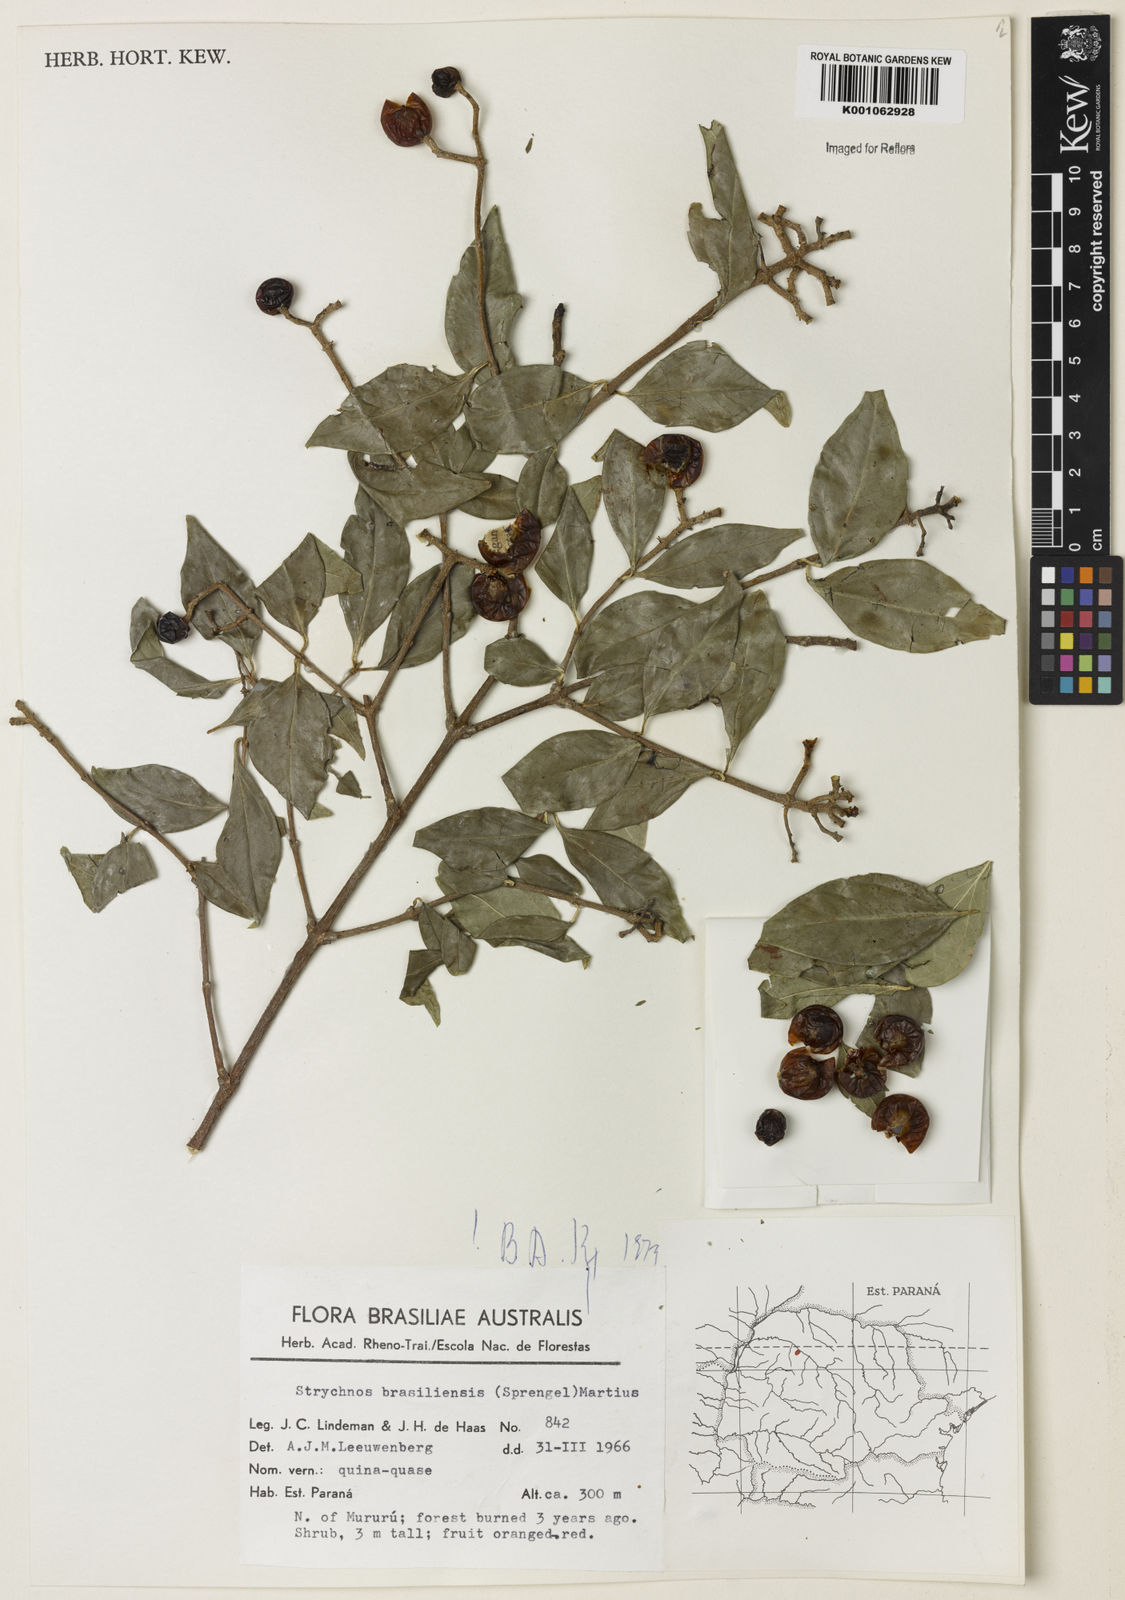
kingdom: Plantae
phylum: Tracheophyta
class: Magnoliopsida
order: Gentianales
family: Loganiaceae
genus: Strychnos
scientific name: Strychnos brasiliensis
